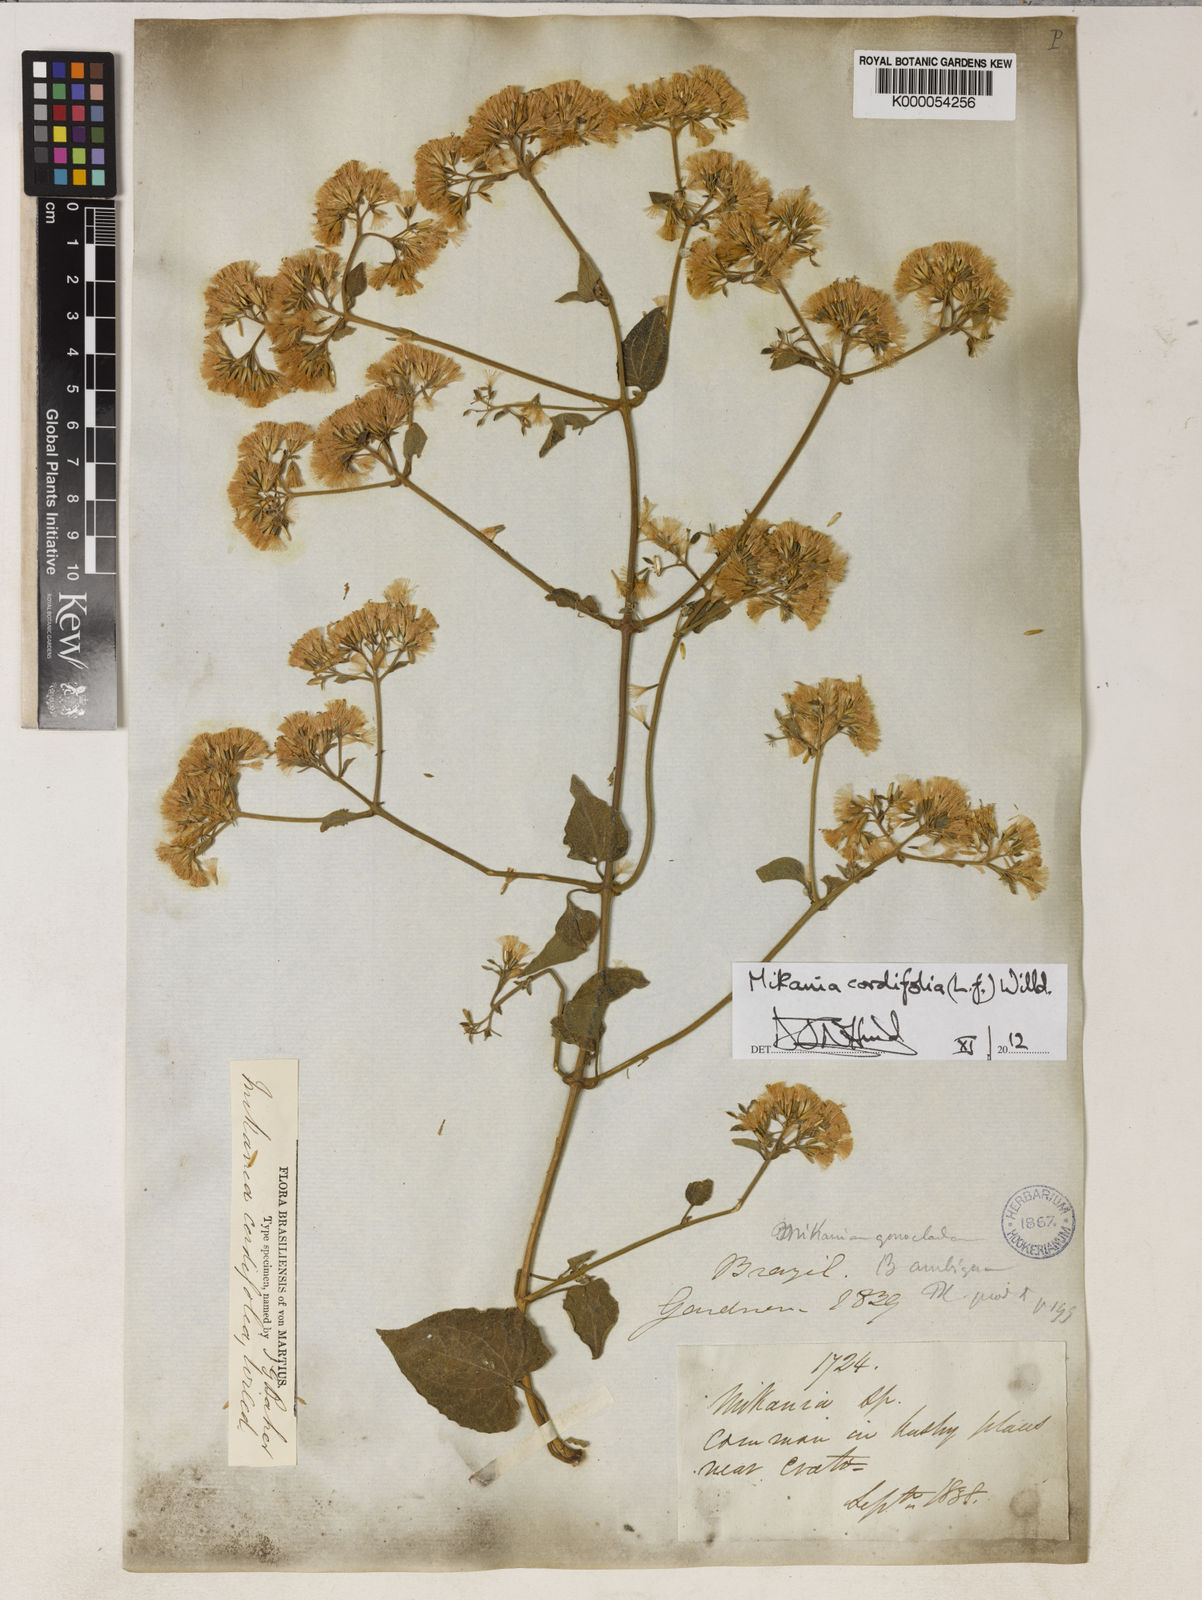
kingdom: Plantae
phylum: Tracheophyta
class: Magnoliopsida
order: Asterales
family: Asteraceae
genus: Mikania
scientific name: Mikania cordifolia
